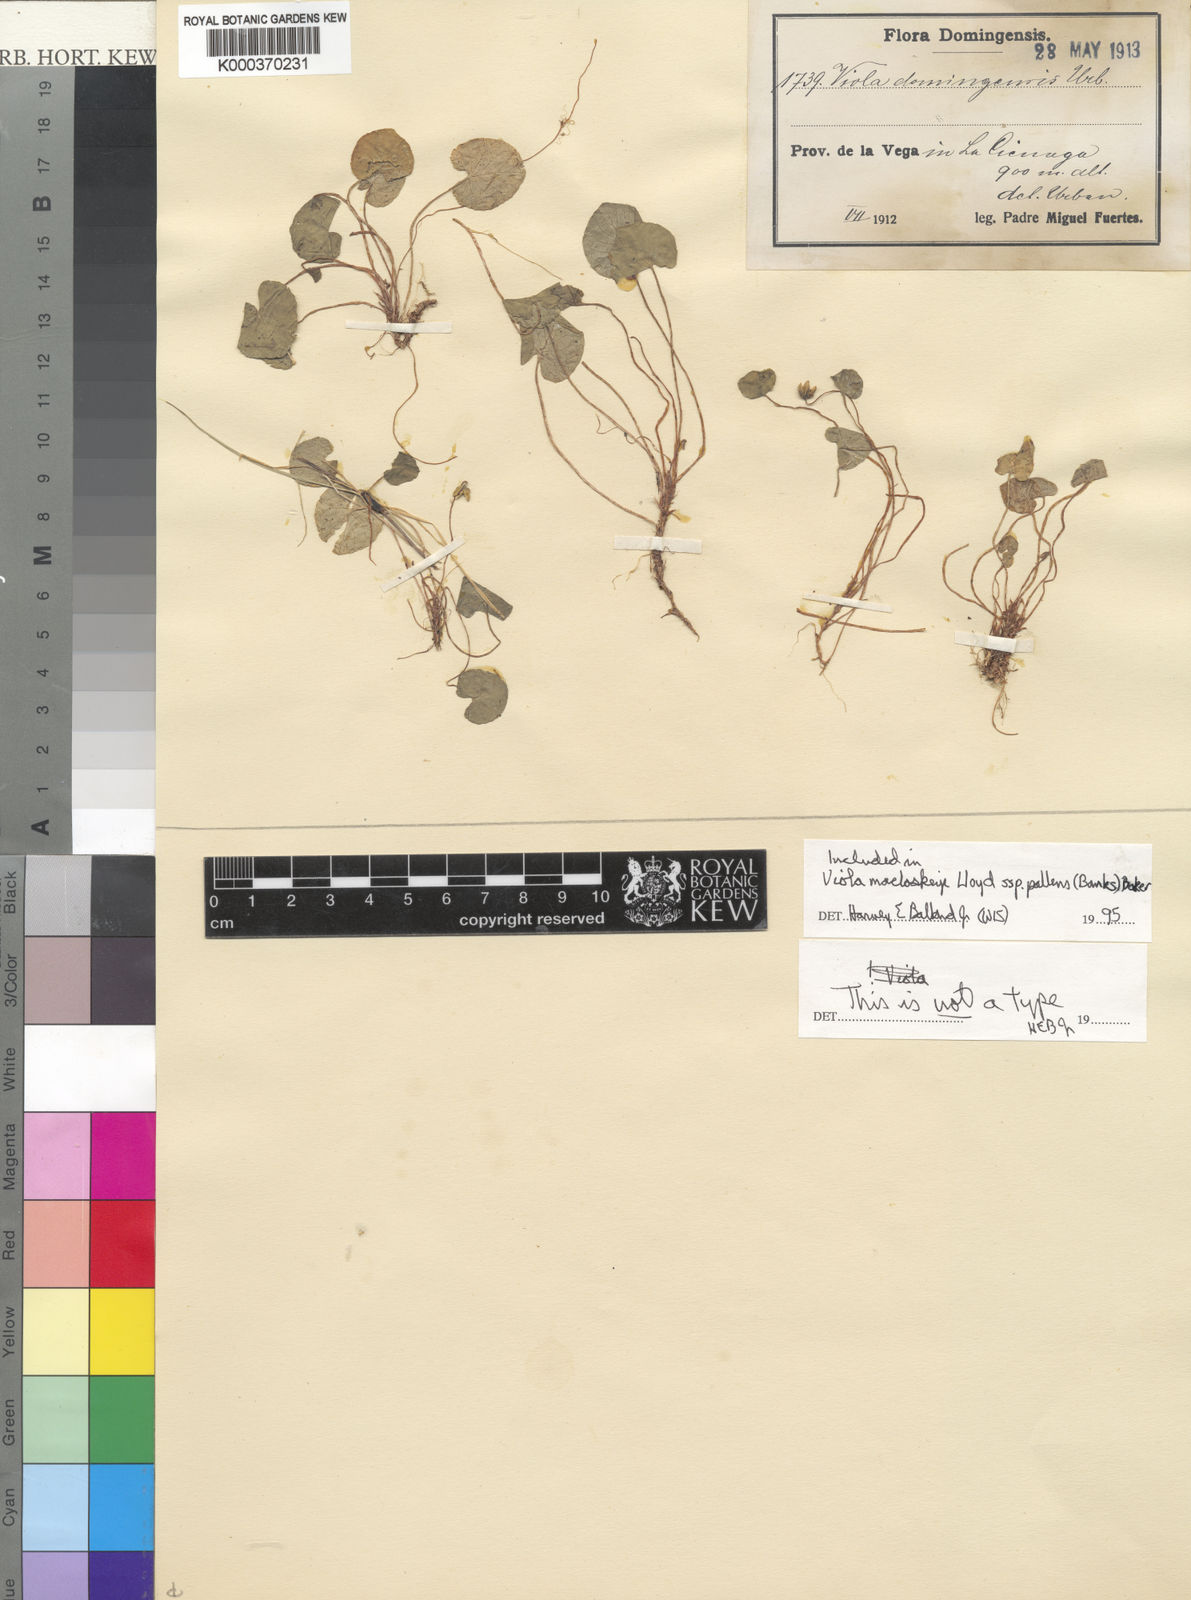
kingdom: Plantae
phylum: Tracheophyta
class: Magnoliopsida
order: Malpighiales
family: Violaceae
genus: Viola
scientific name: Viola palustris
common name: Marsh violet
